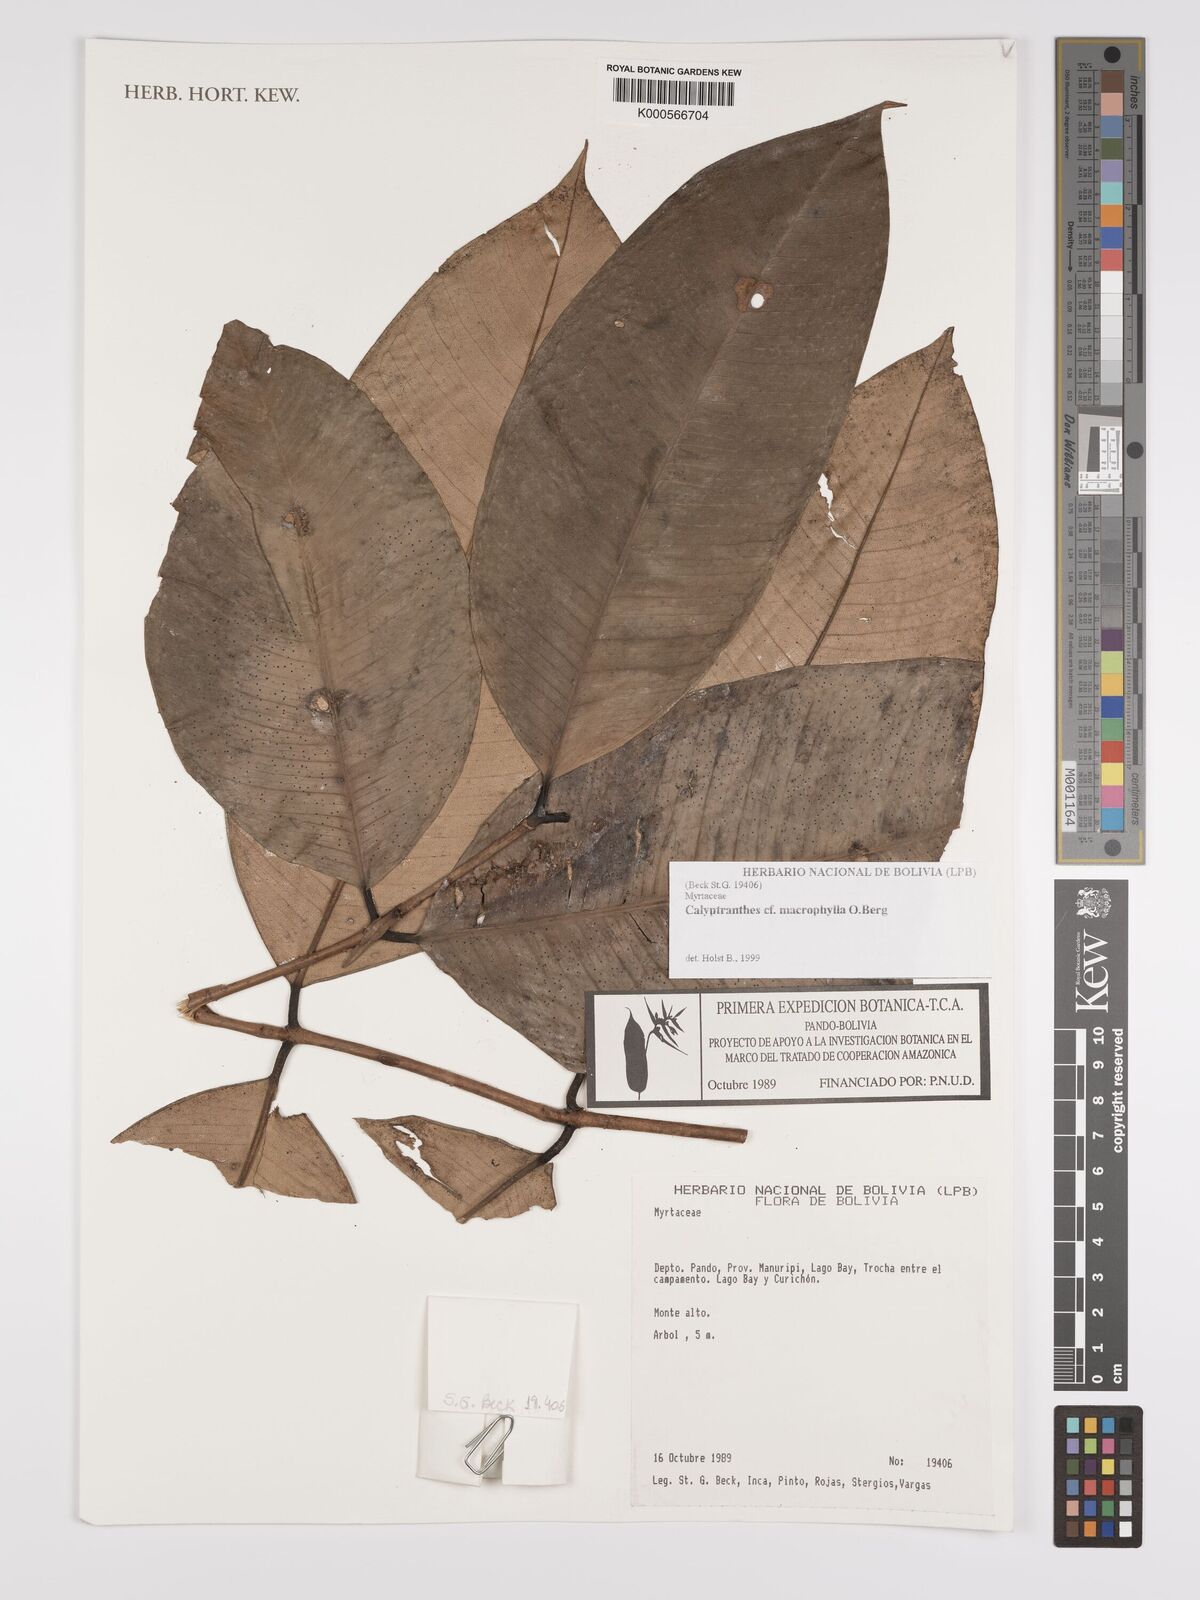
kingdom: Plantae
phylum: Tracheophyta
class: Magnoliopsida
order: Myrtales
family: Myrtaceae
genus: Myrcia
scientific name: Myrcia neomacrophylla
